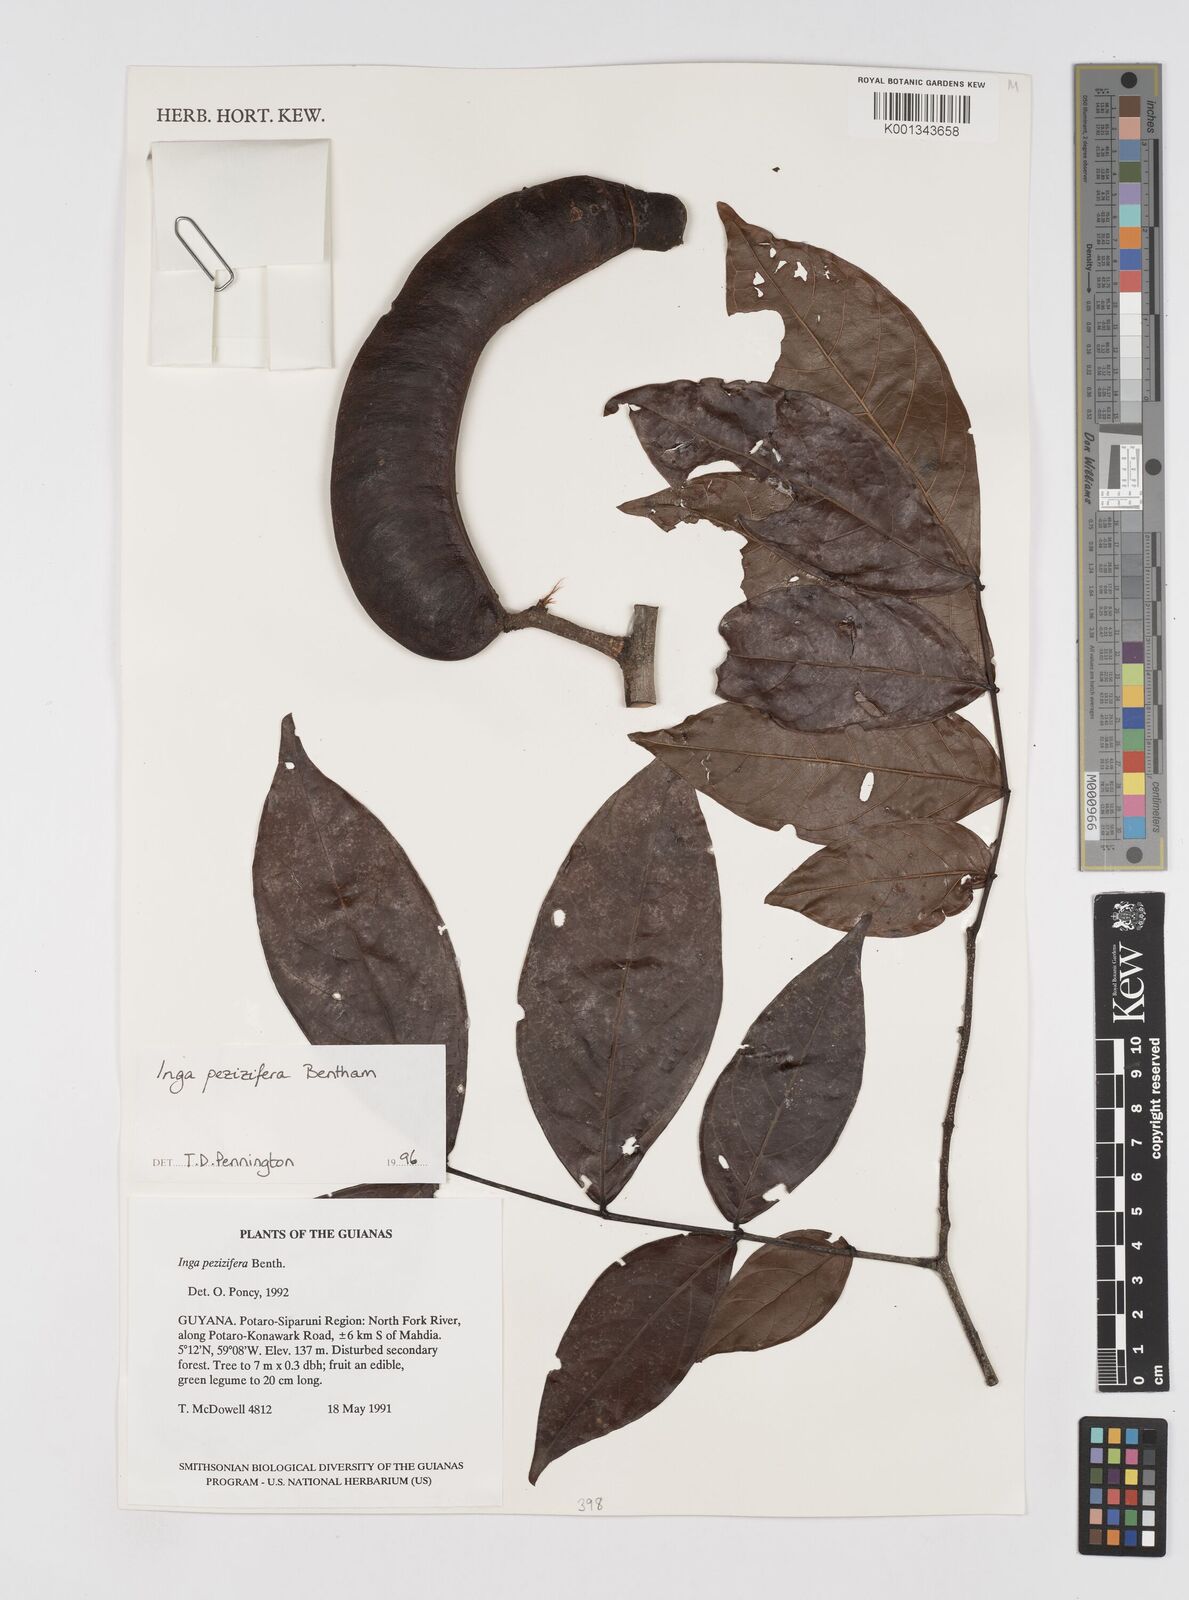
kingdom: Plantae
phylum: Tracheophyta
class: Magnoliopsida
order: Fabales
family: Fabaceae
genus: Inga
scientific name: Inga pezizifera
